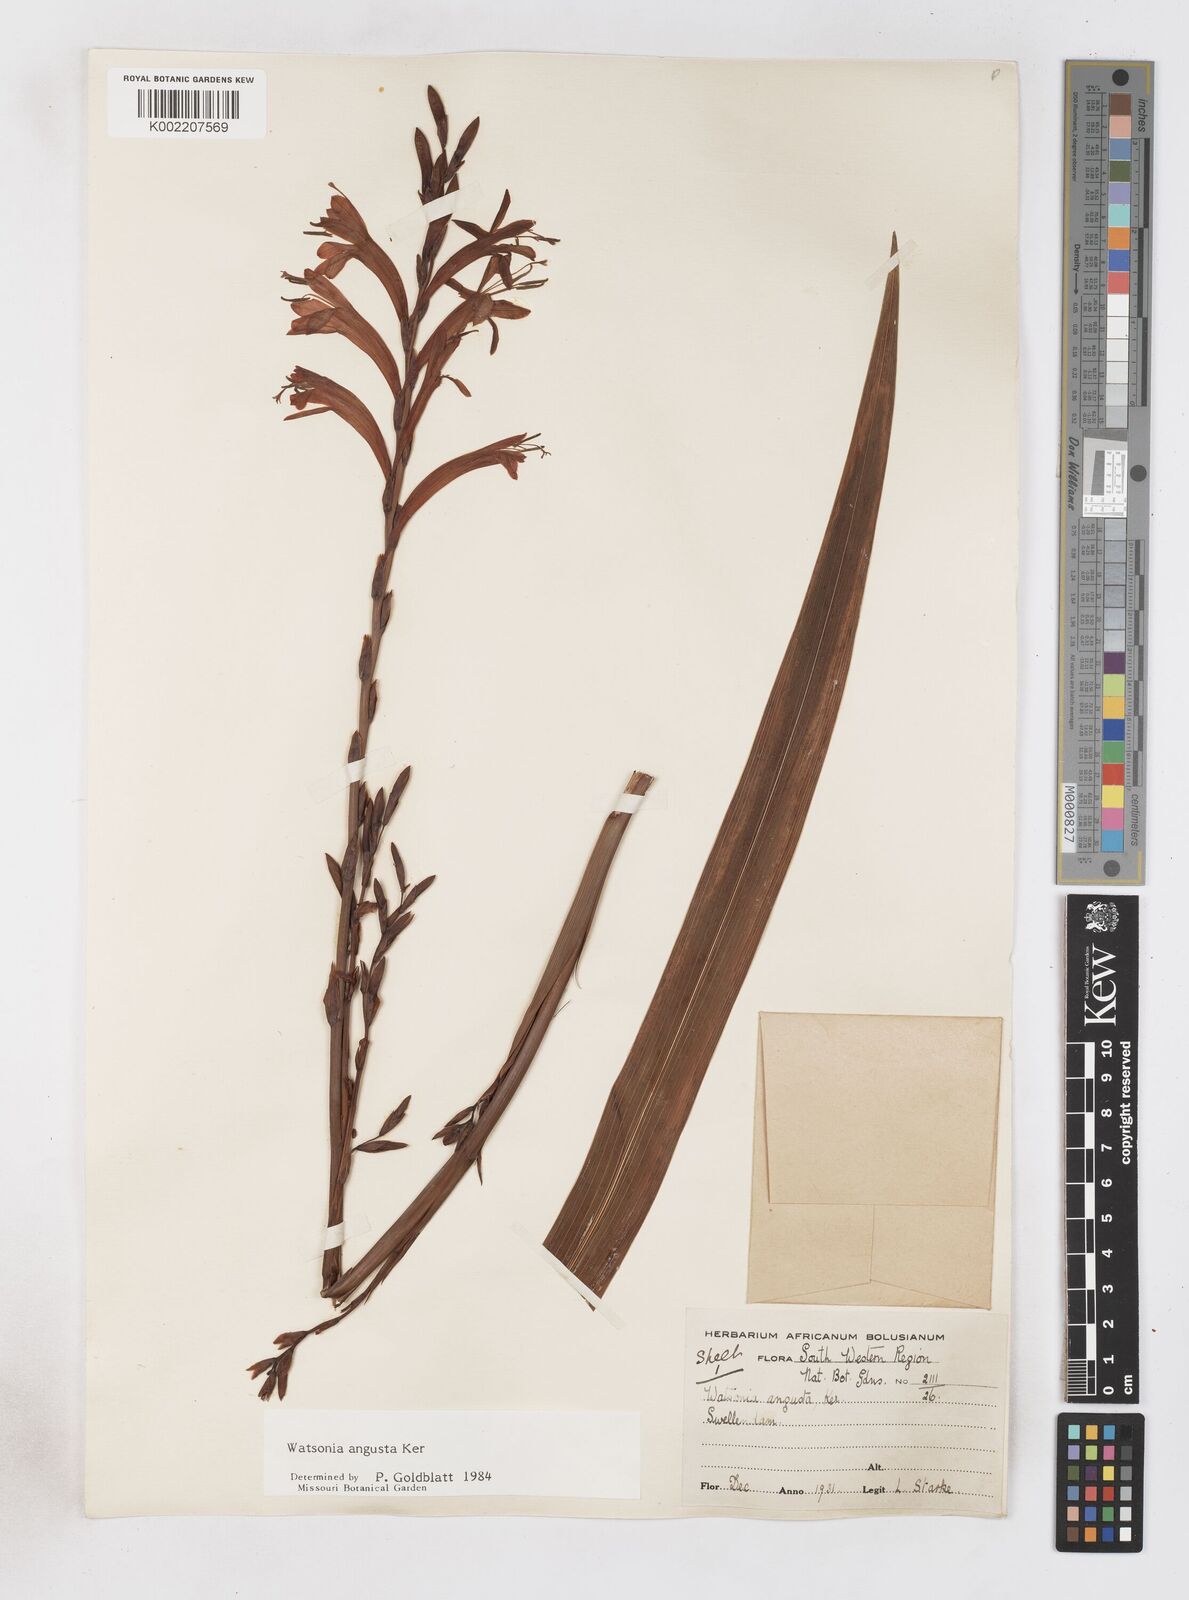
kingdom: Plantae
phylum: Tracheophyta
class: Liliopsida
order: Asparagales
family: Iridaceae
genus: Watsonia
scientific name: Watsonia angusta
